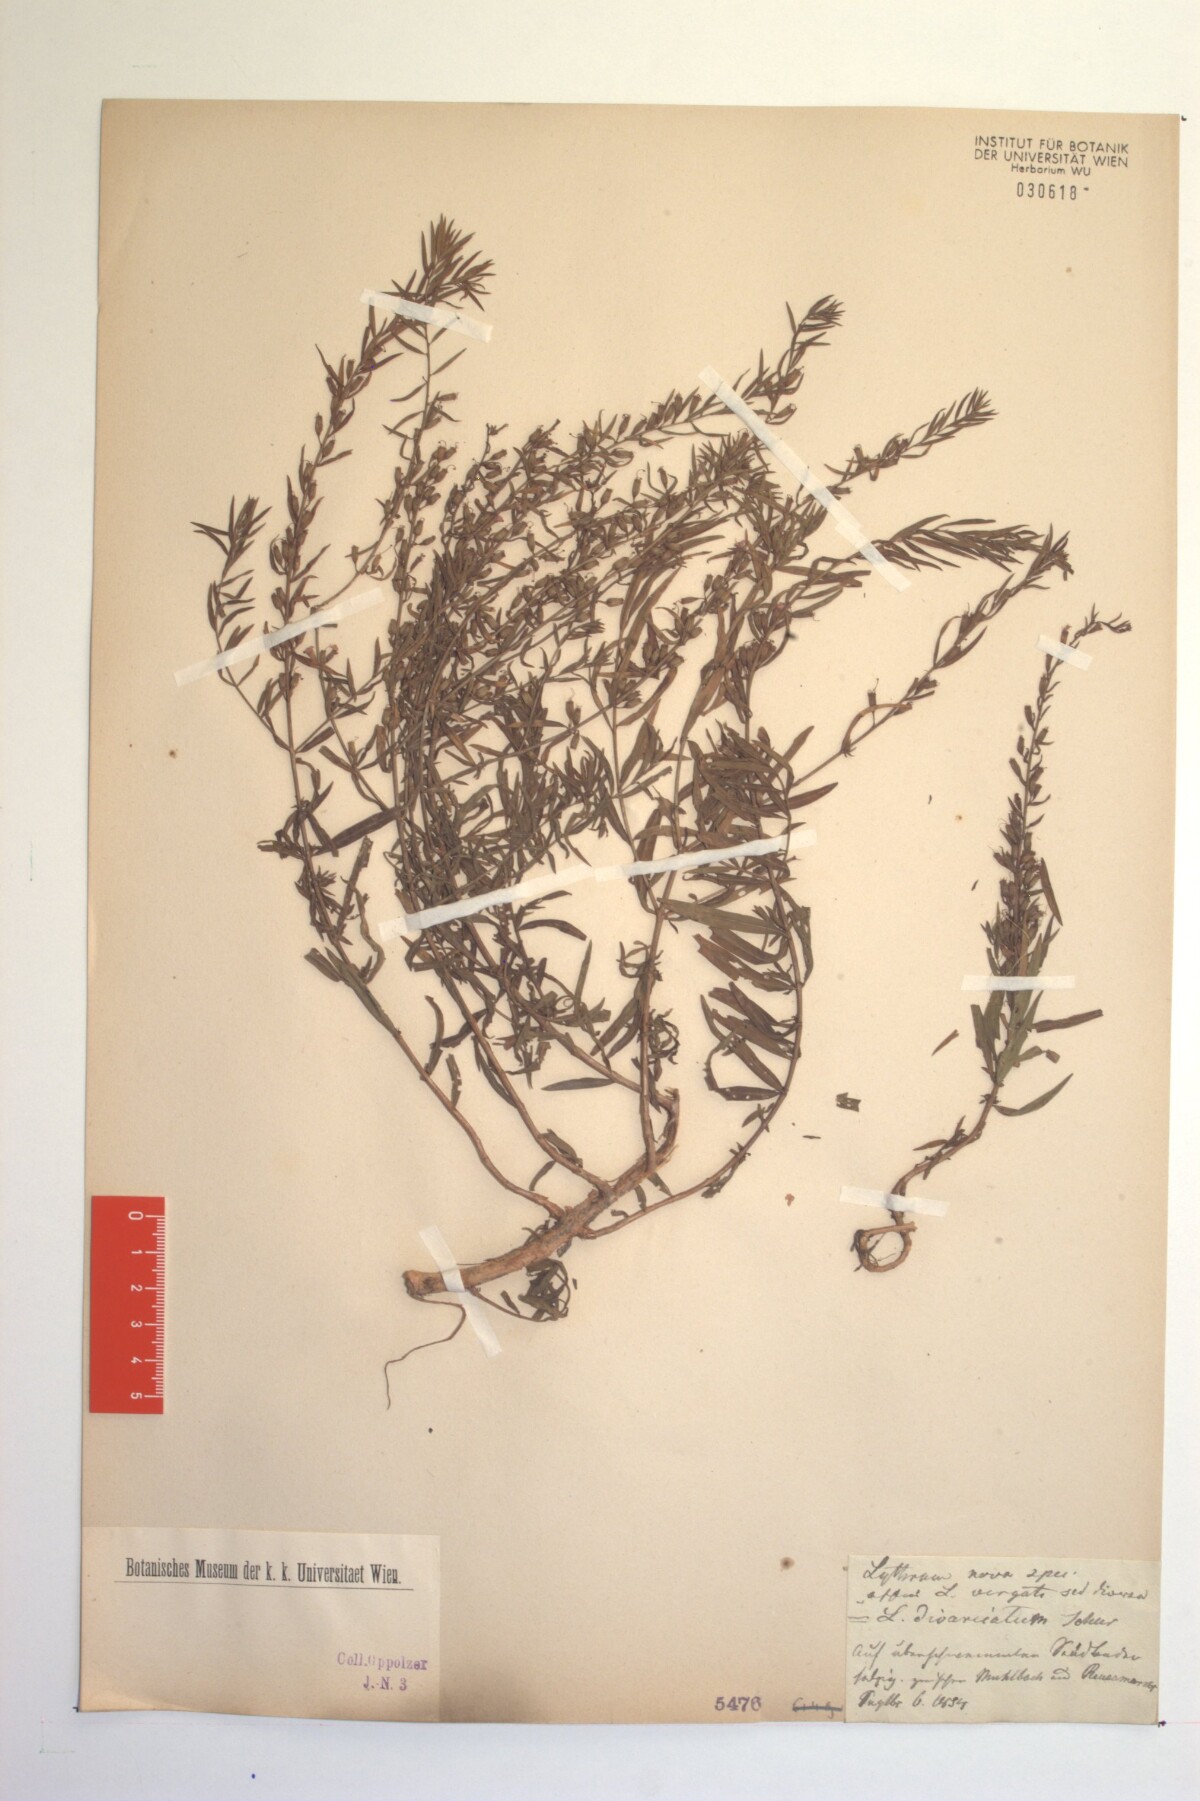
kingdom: Plantae
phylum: Tracheophyta
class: Magnoliopsida
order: Myrtales
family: Lythraceae
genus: Lythrum
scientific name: Lythrum virgatum
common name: European wand loosestrife
